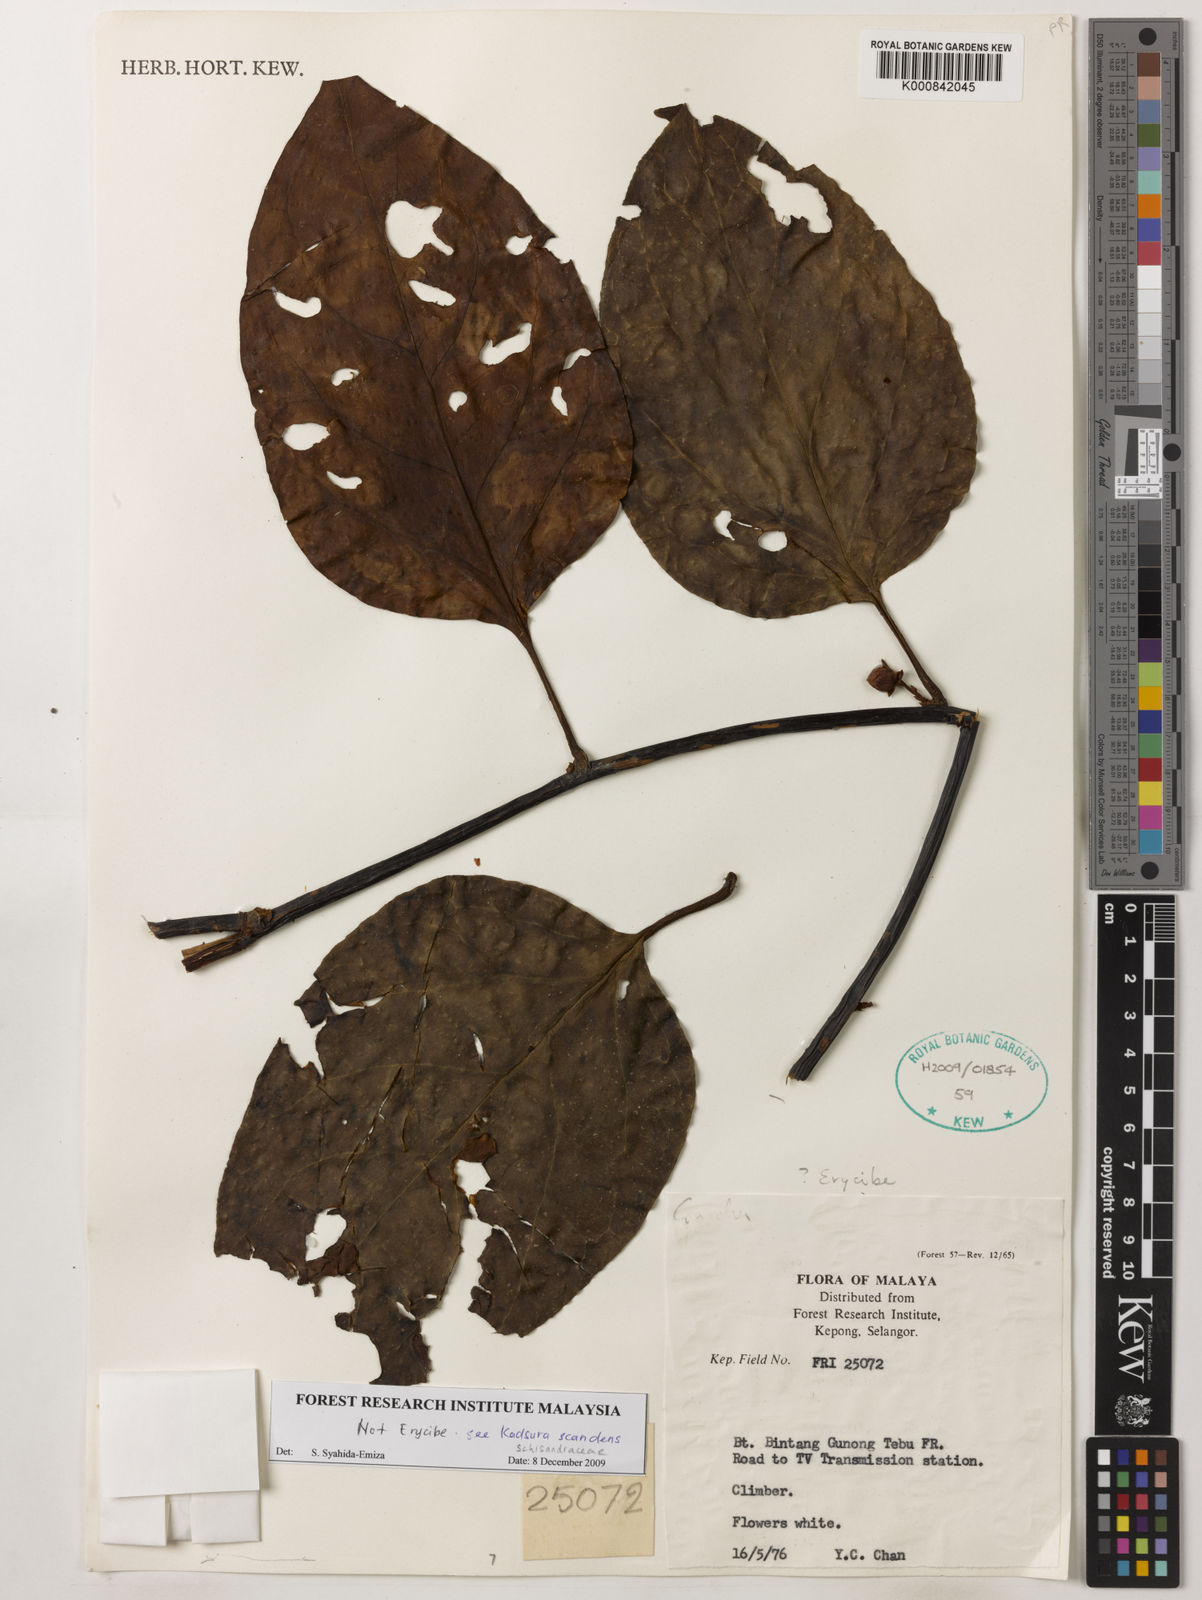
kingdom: Plantae
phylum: Tracheophyta
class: Magnoliopsida
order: Austrobaileyales
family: Schisandraceae
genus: Kadsura
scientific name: Kadsura scandens
